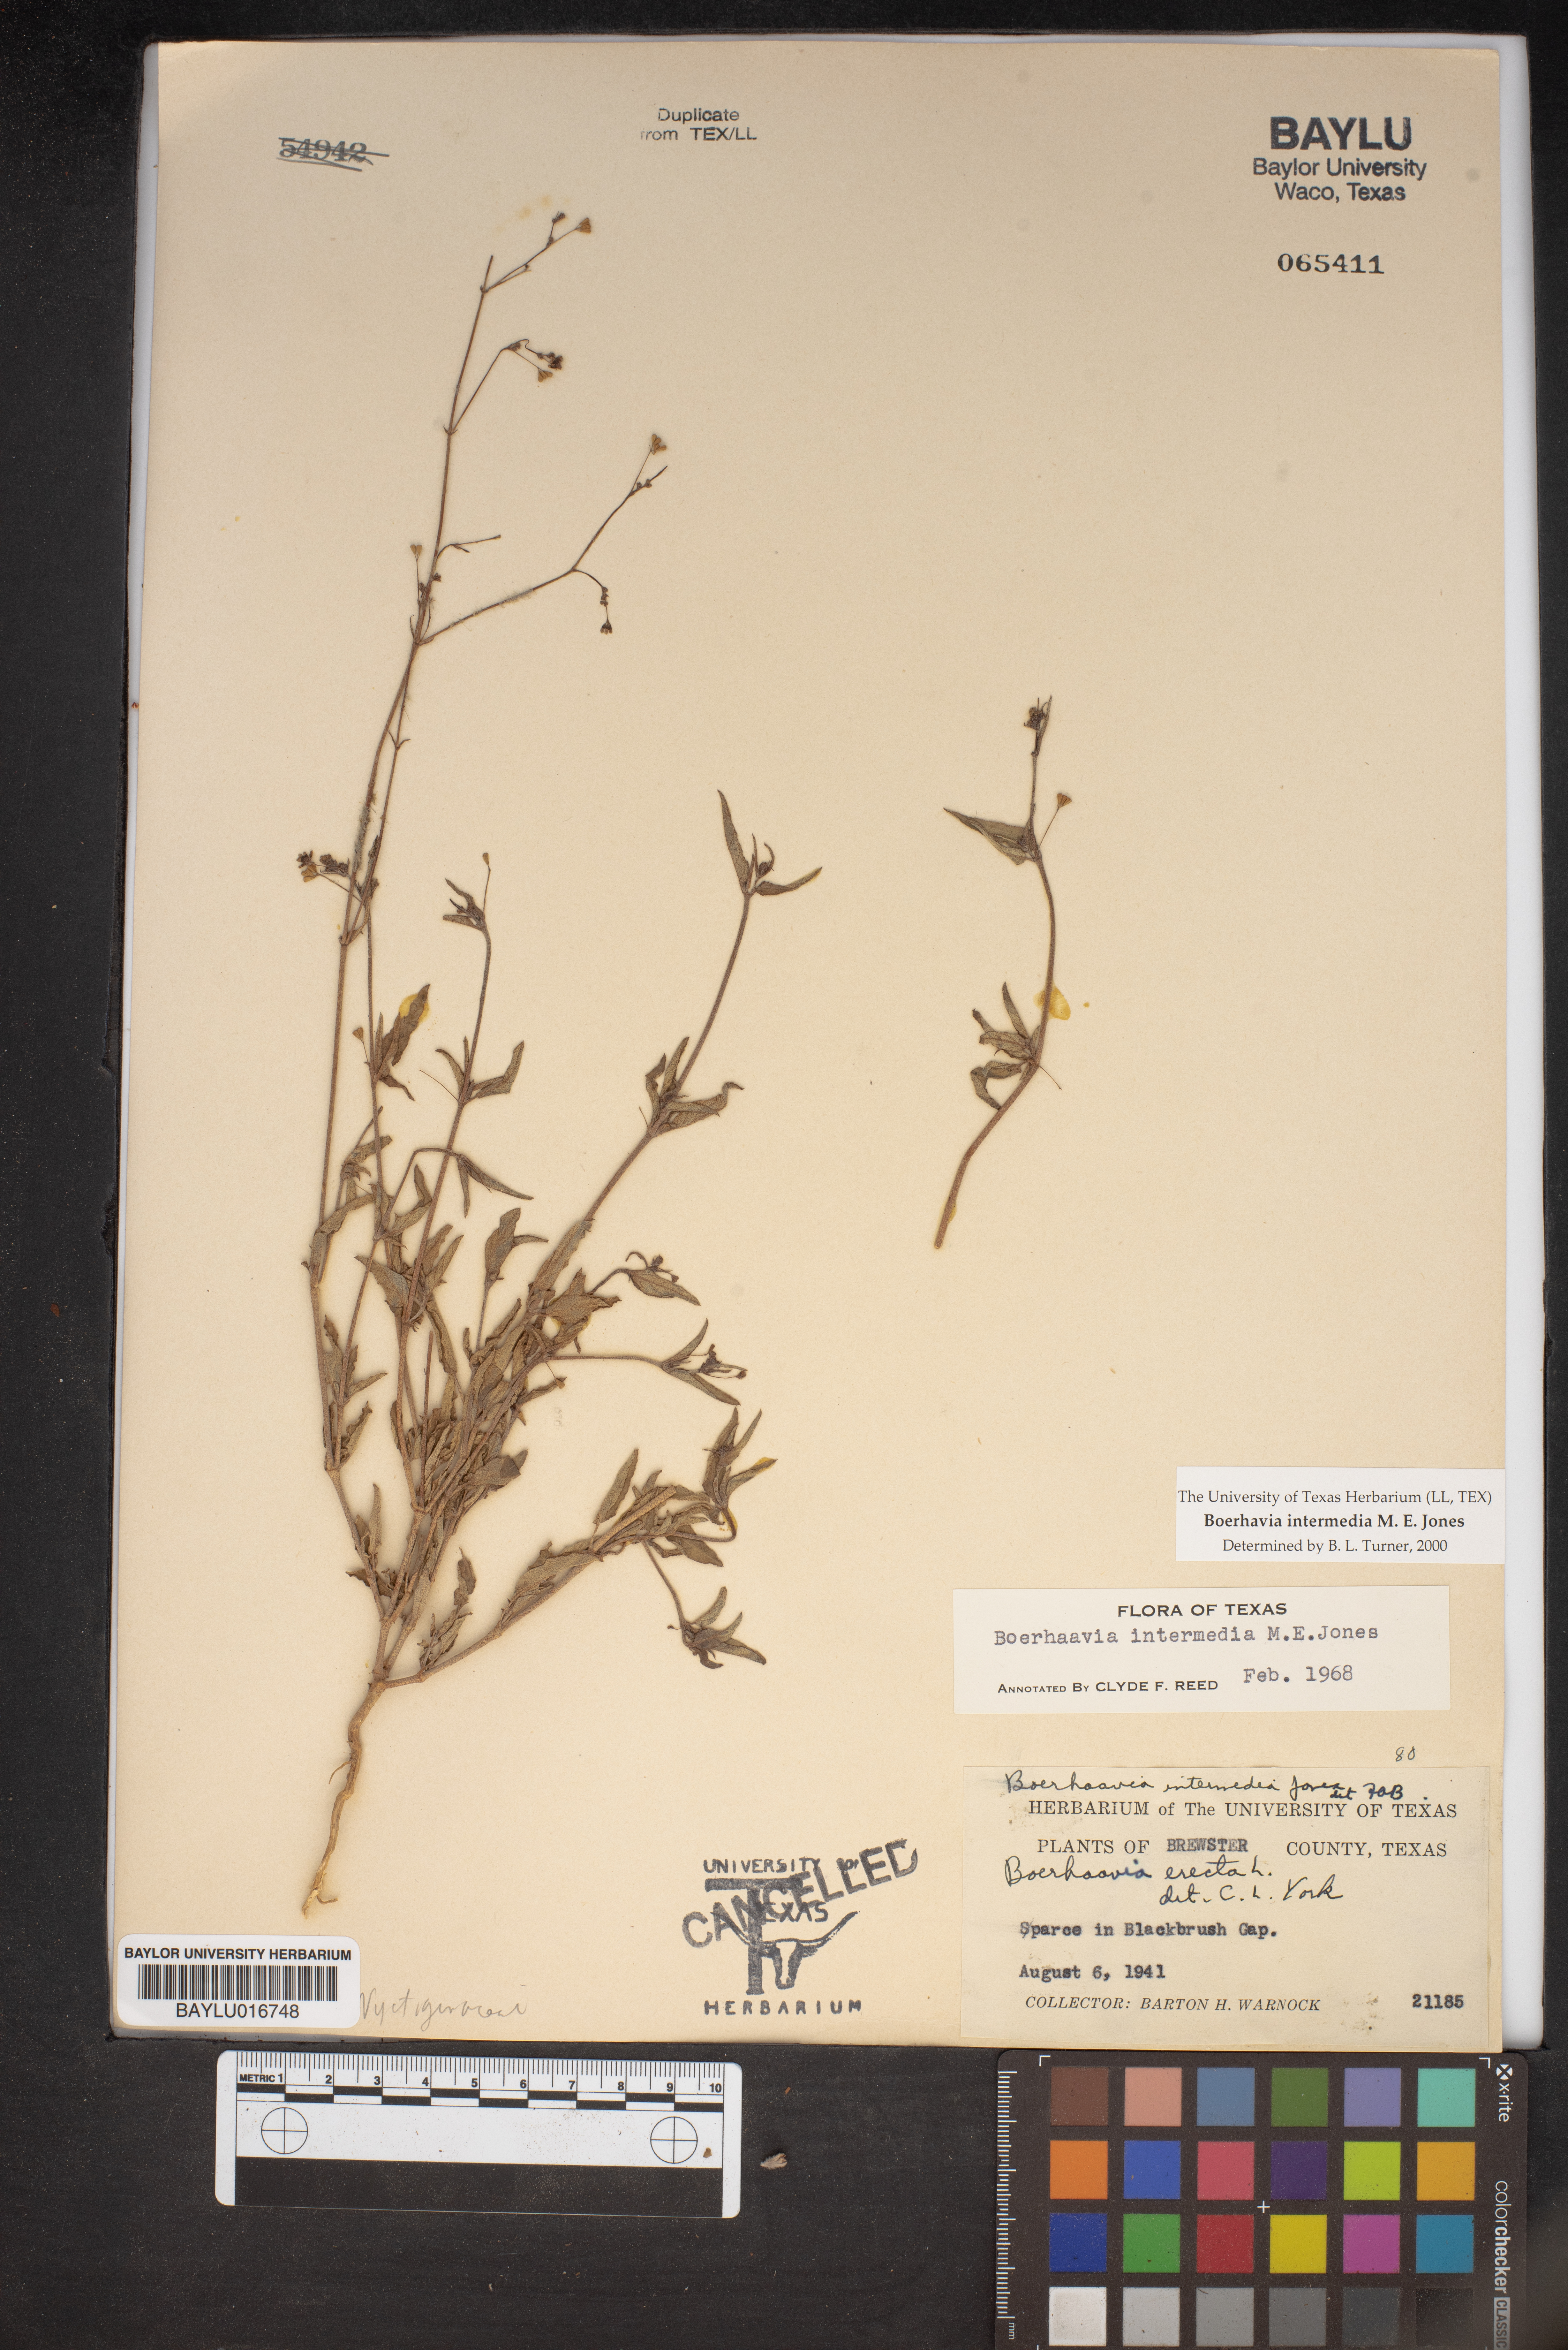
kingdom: Plantae
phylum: Tracheophyta
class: Magnoliopsida
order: Caryophyllales
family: Nyctaginaceae
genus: Boerhavia
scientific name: Boerhavia triquetra
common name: Creeping sticky-stem
